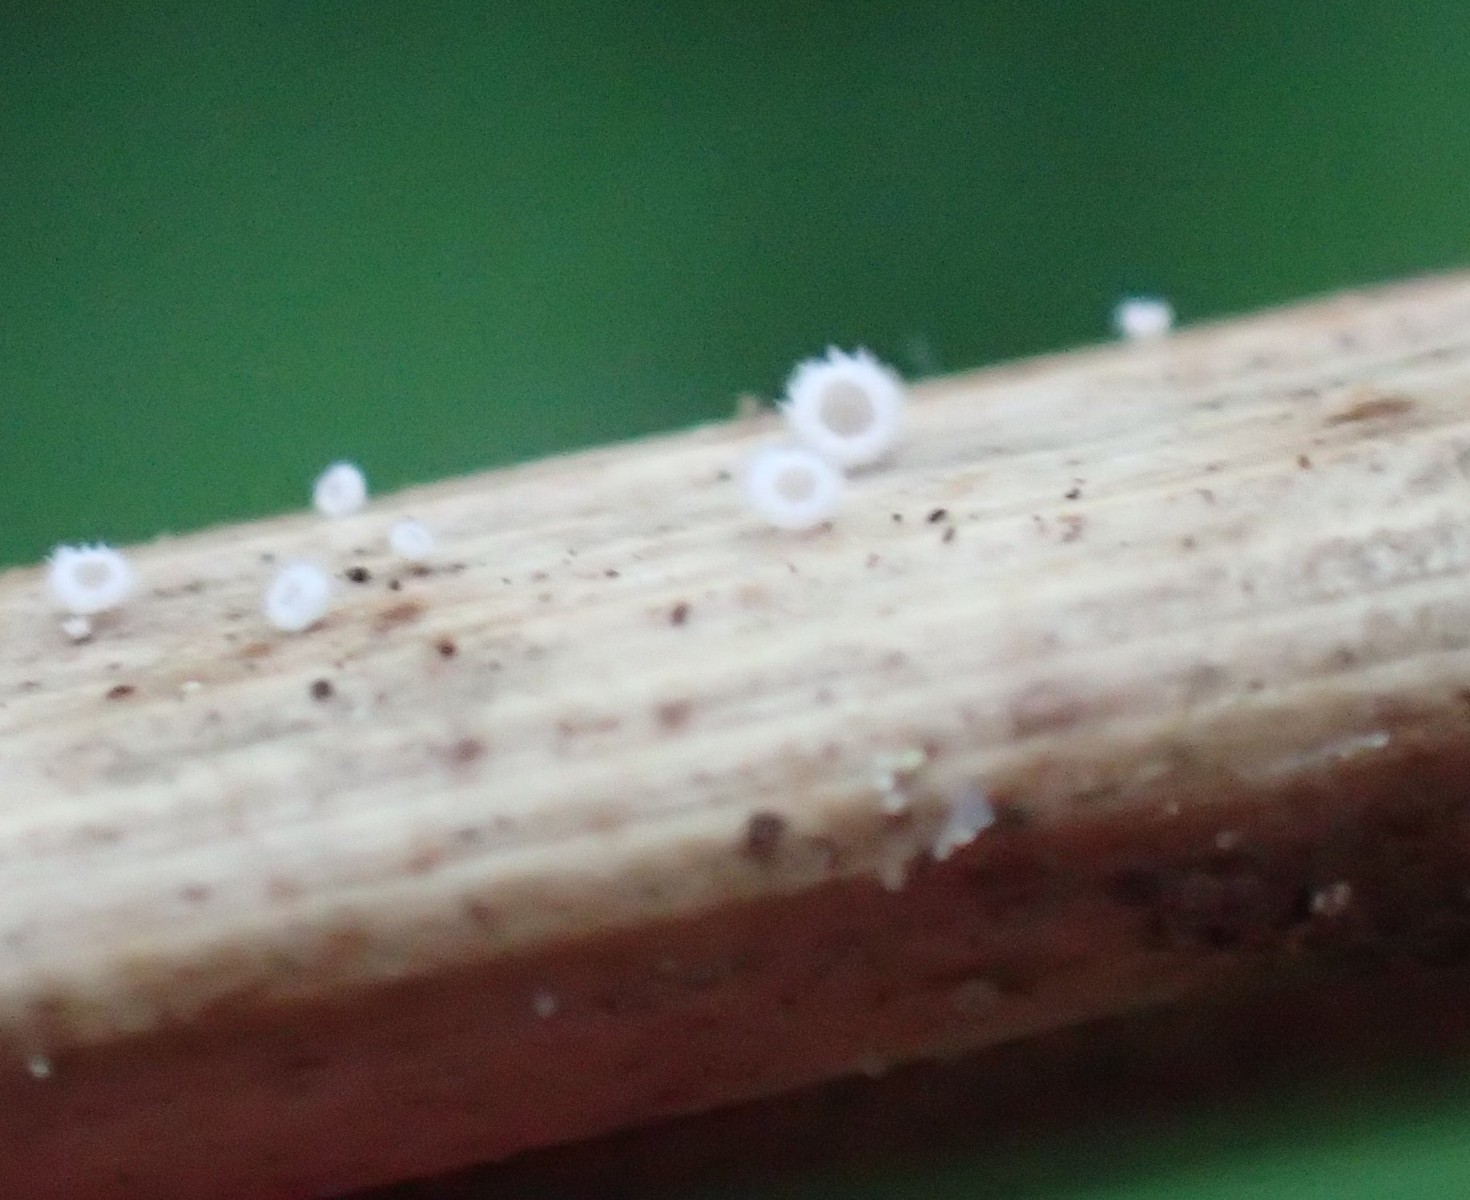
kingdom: Fungi
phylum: Basidiomycota
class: Agaricomycetes
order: Agaricales
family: Niaceae
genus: Flagelloscypha
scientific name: Flagelloscypha
